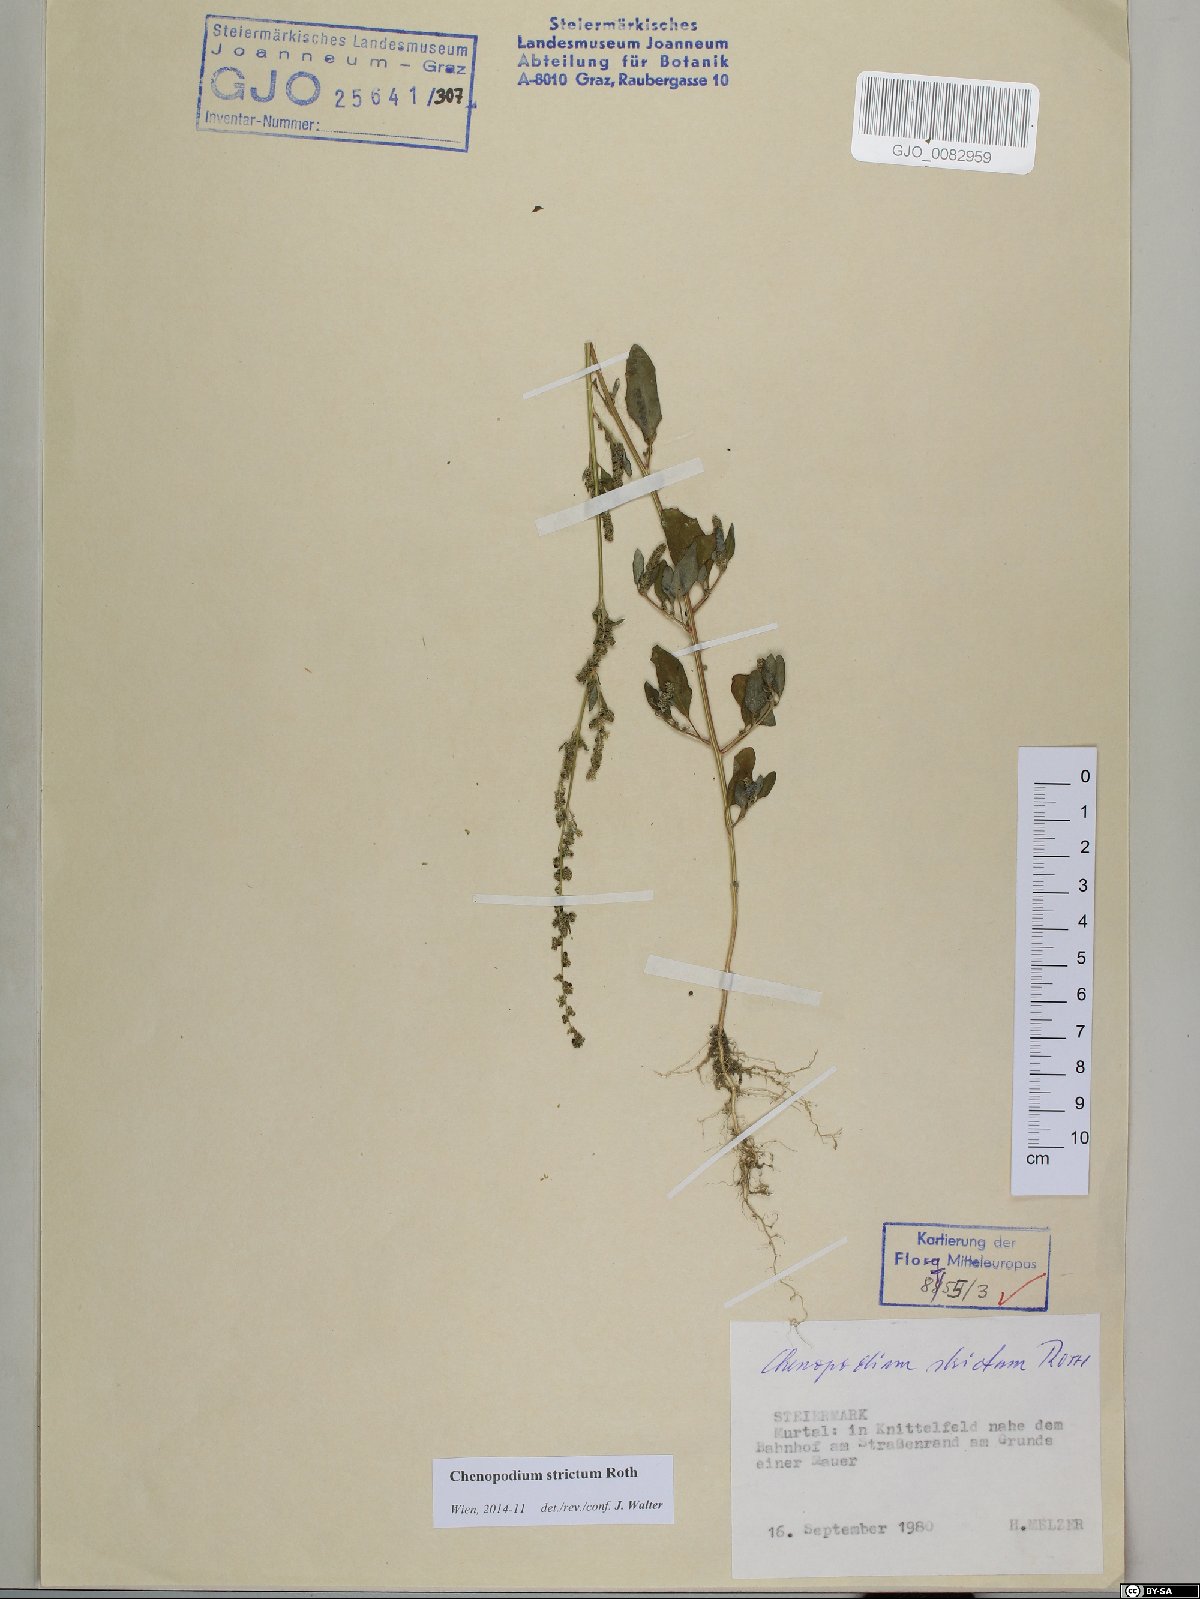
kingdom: Plantae
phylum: Tracheophyta
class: Magnoliopsida
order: Caryophyllales
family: Amaranthaceae
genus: Chenopodium
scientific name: Chenopodium album
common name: Fat-hen
